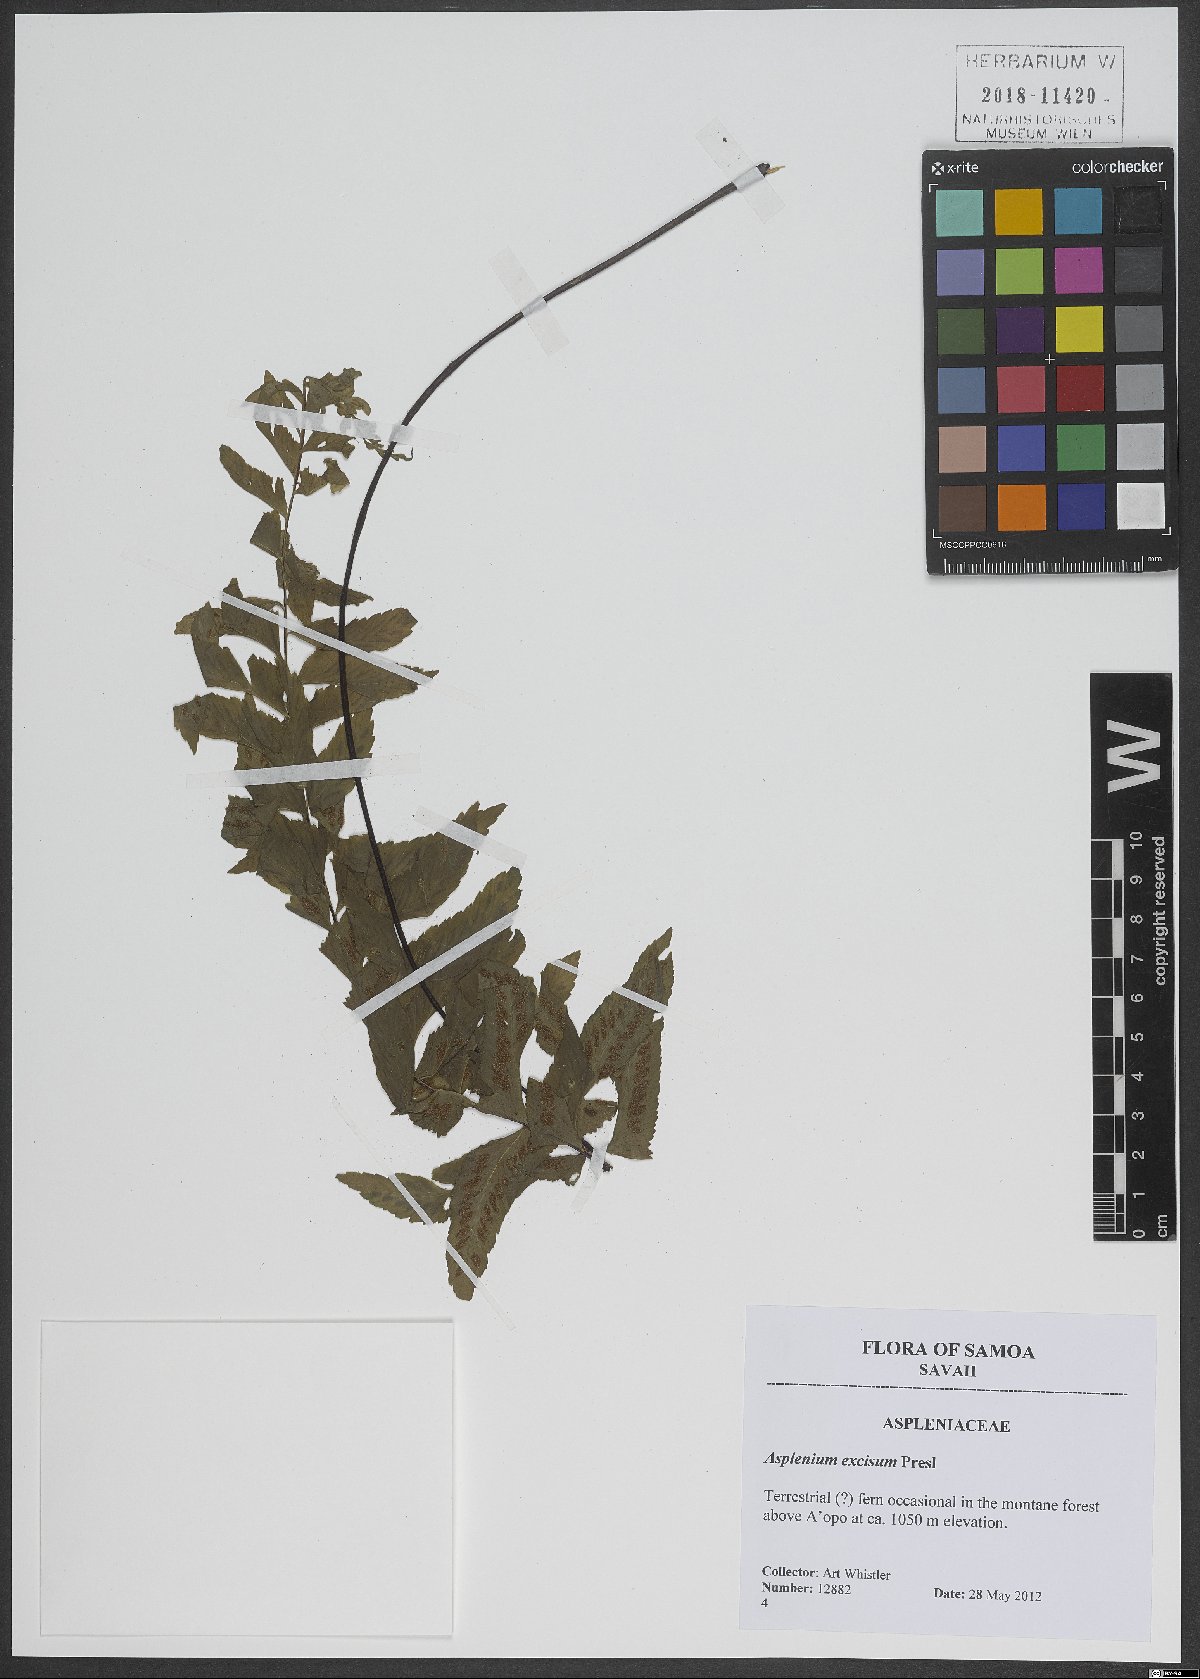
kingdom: Plantae
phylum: Tracheophyta
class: Polypodiopsida
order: Polypodiales
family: Aspleniaceae
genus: Hymenasplenium
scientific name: Hymenasplenium excisum
